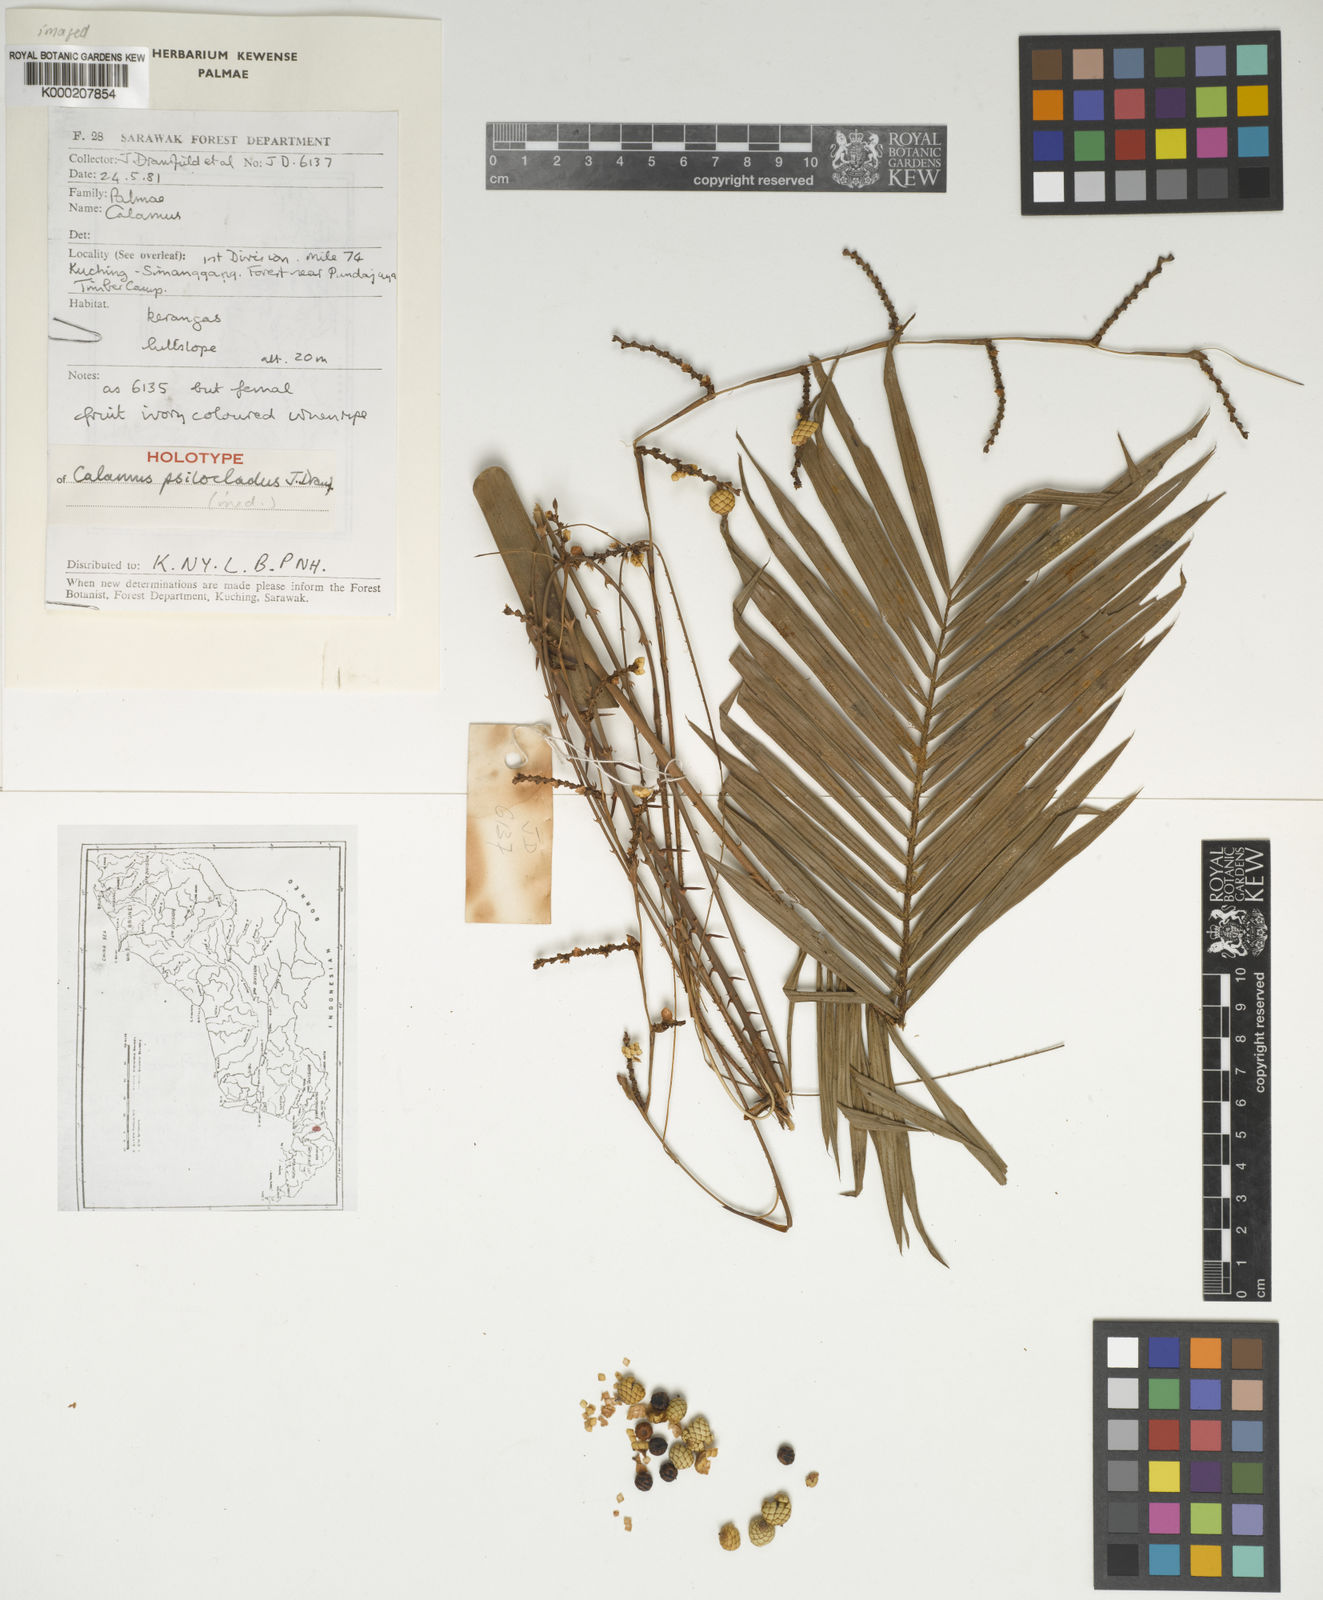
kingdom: Plantae
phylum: Tracheophyta
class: Liliopsida
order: Arecales
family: Arecaceae
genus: Calamus
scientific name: Calamus psilocladus
